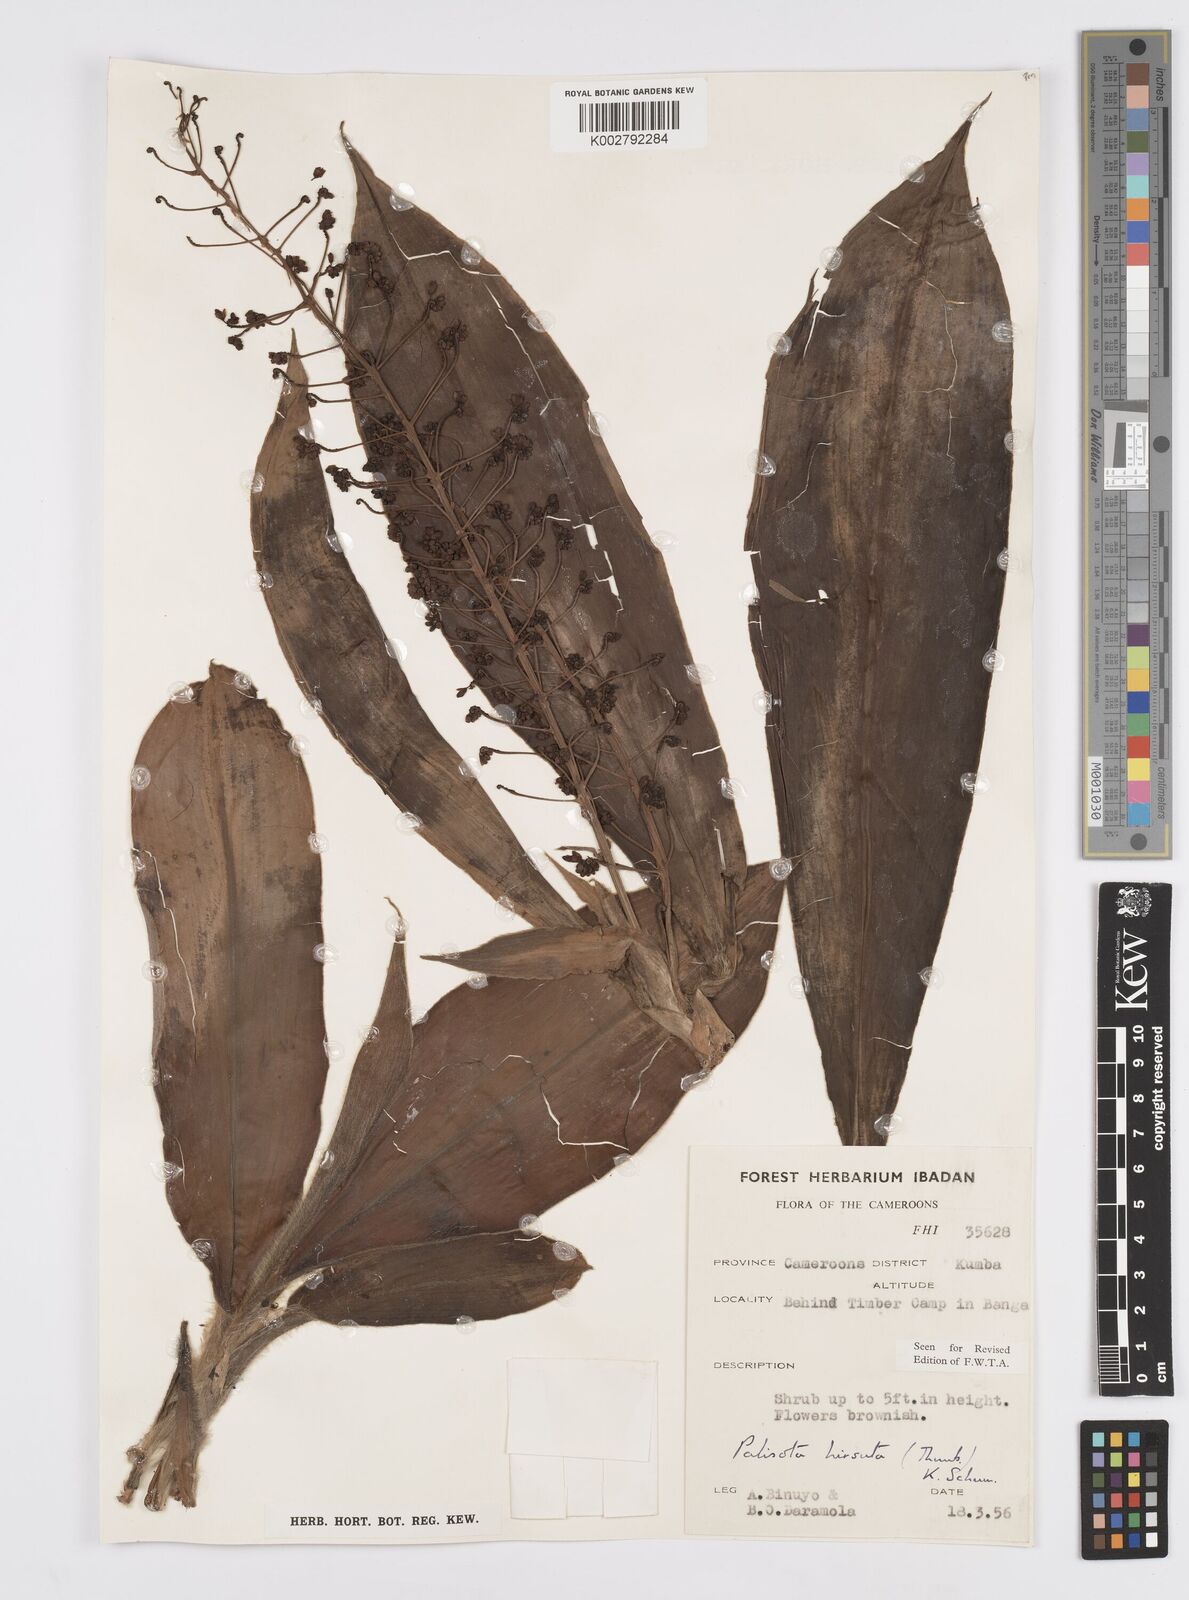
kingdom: Plantae
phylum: Tracheophyta
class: Liliopsida
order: Commelinales
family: Commelinaceae
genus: Palisota
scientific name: Palisota hirsuta
